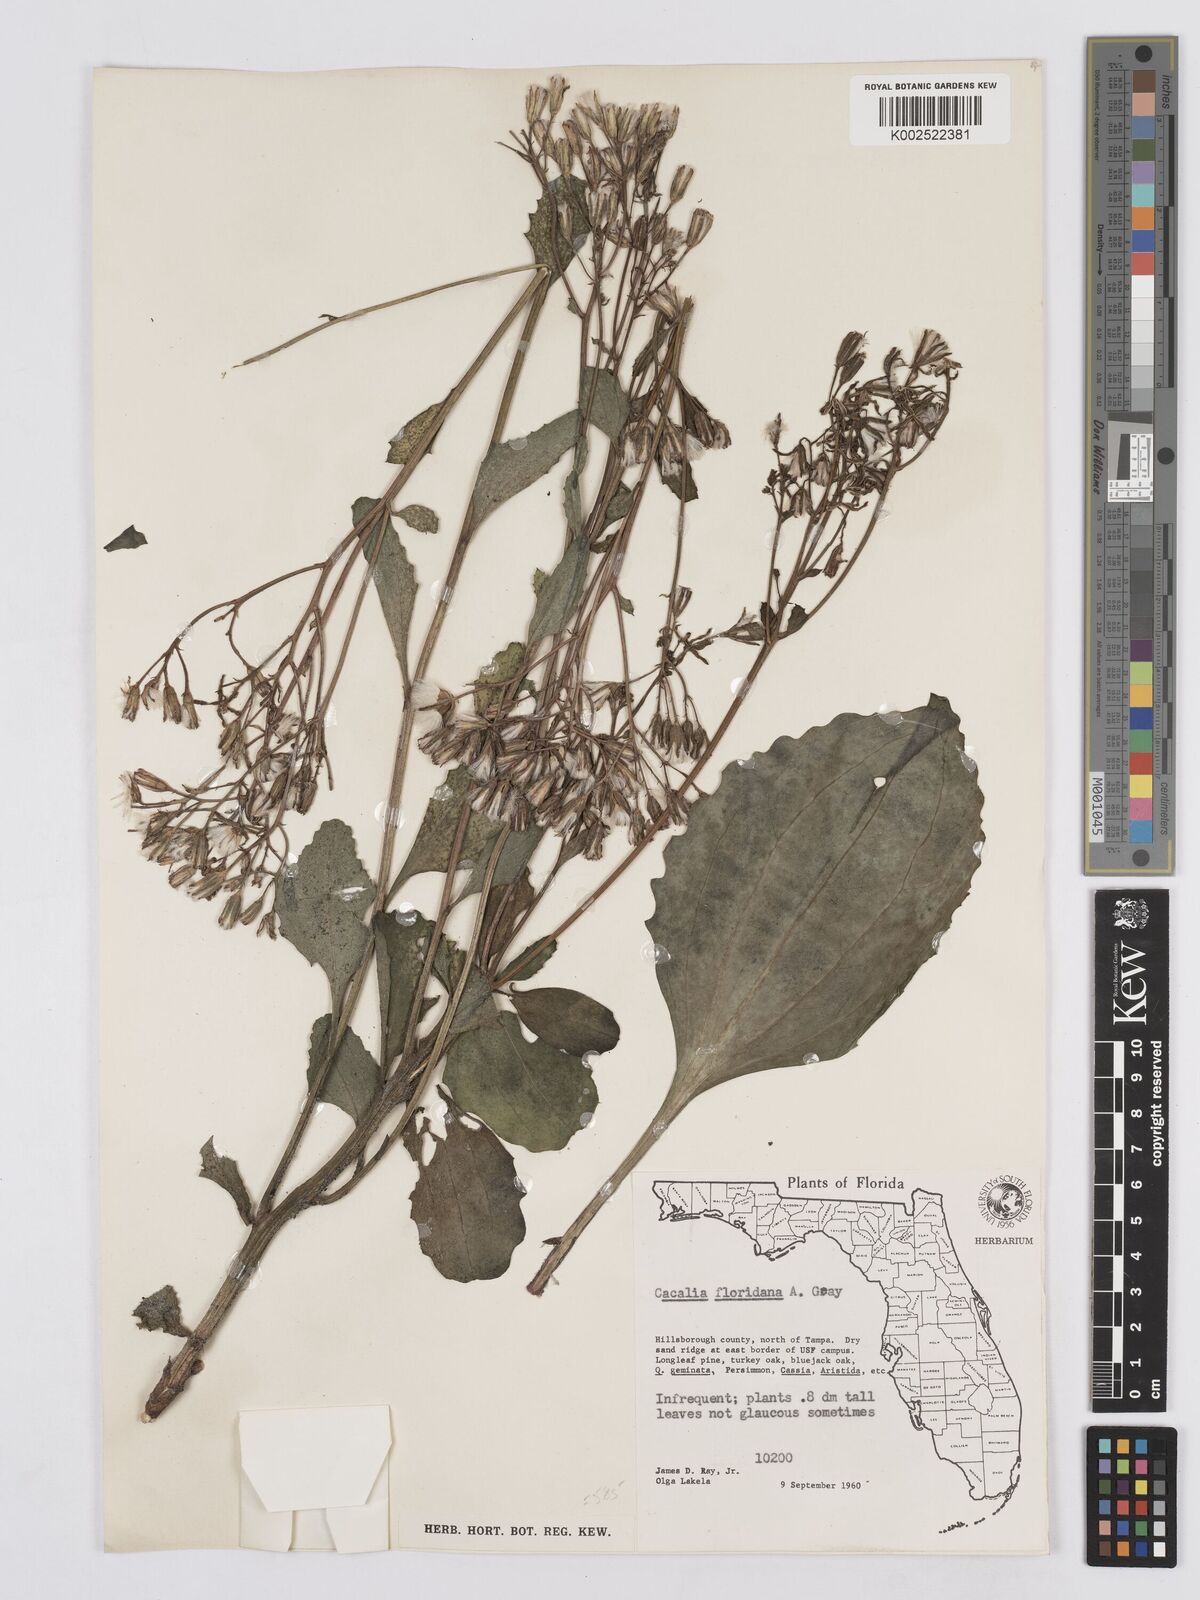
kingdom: Plantae
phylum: Tracheophyta
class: Magnoliopsida
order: Asterales
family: Asteraceae
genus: Arnoglossum
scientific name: Arnoglossum floridanum
